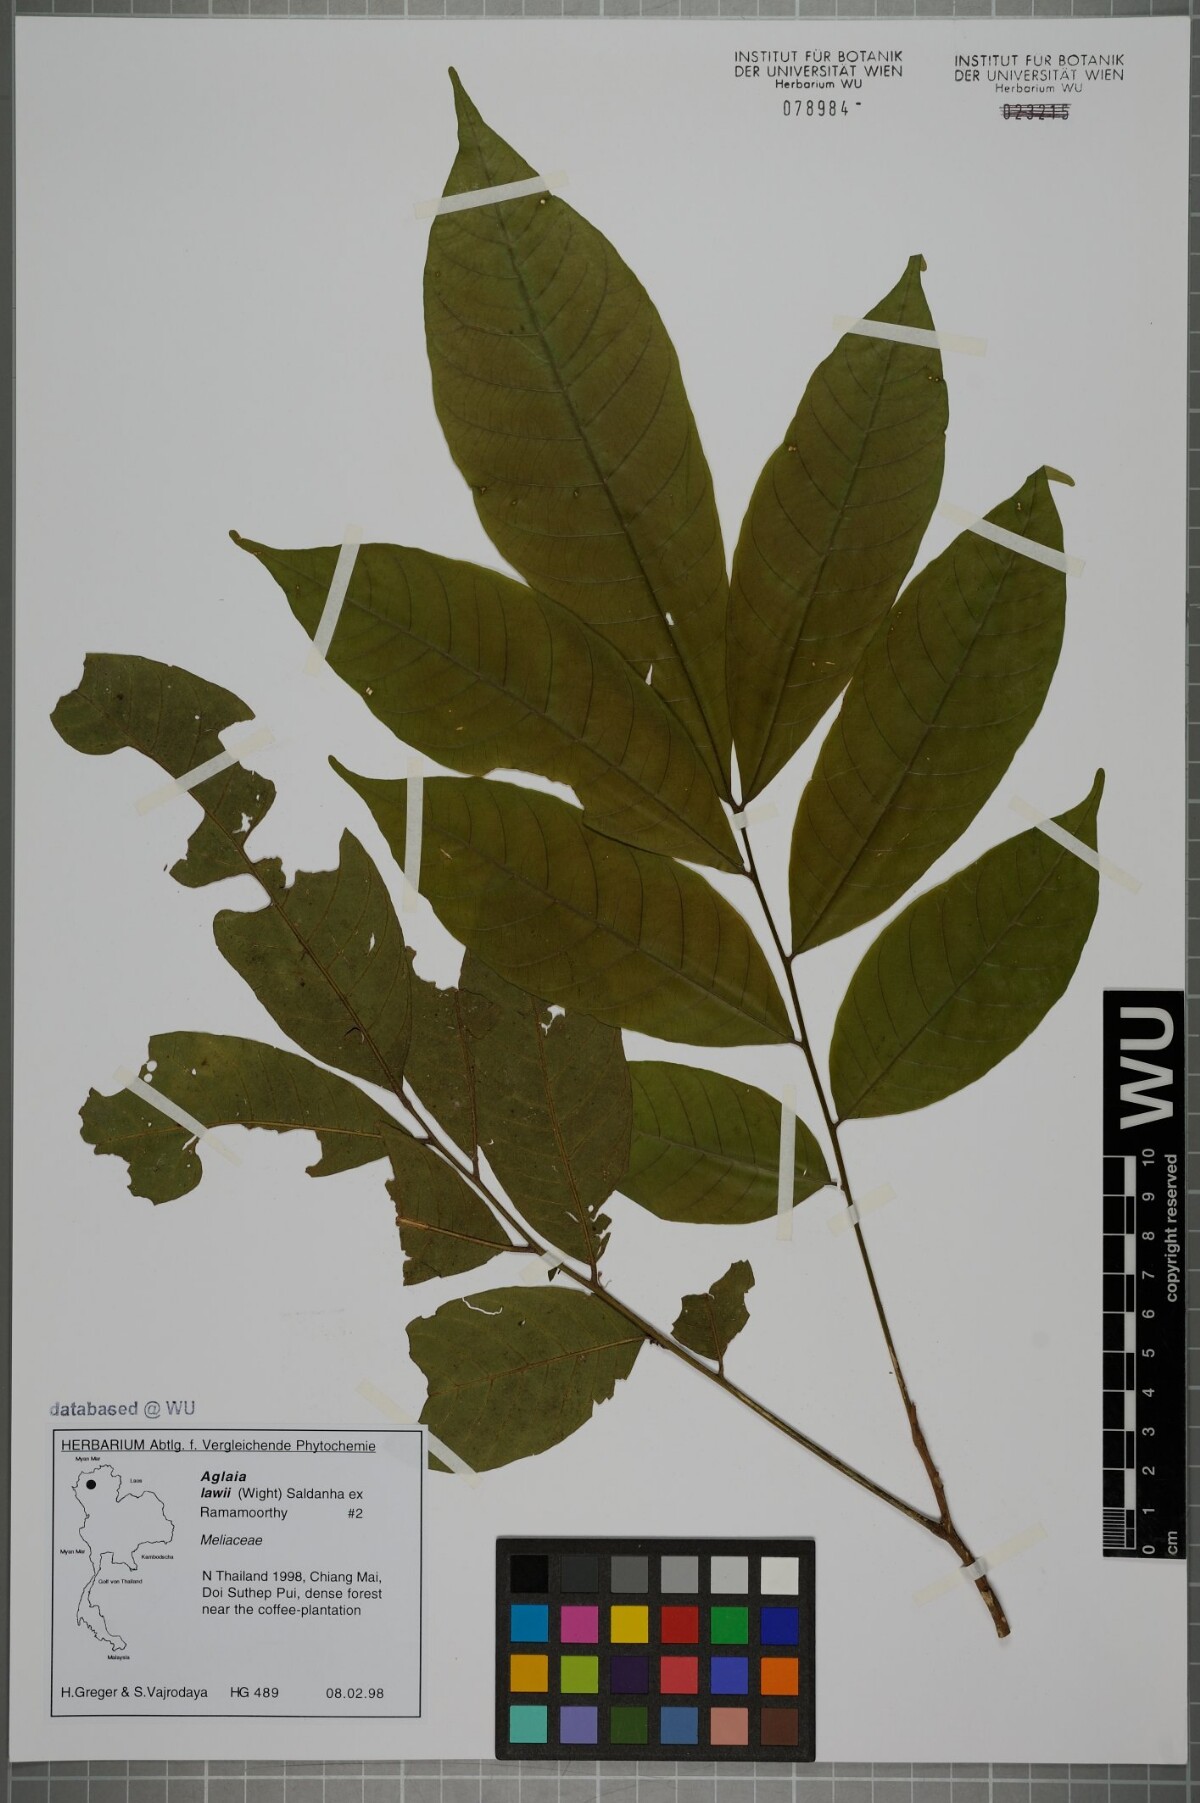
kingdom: Plantae
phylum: Tracheophyta
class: Magnoliopsida
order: Sapindales
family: Meliaceae
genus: Aglaia
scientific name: Aglaia lawii
